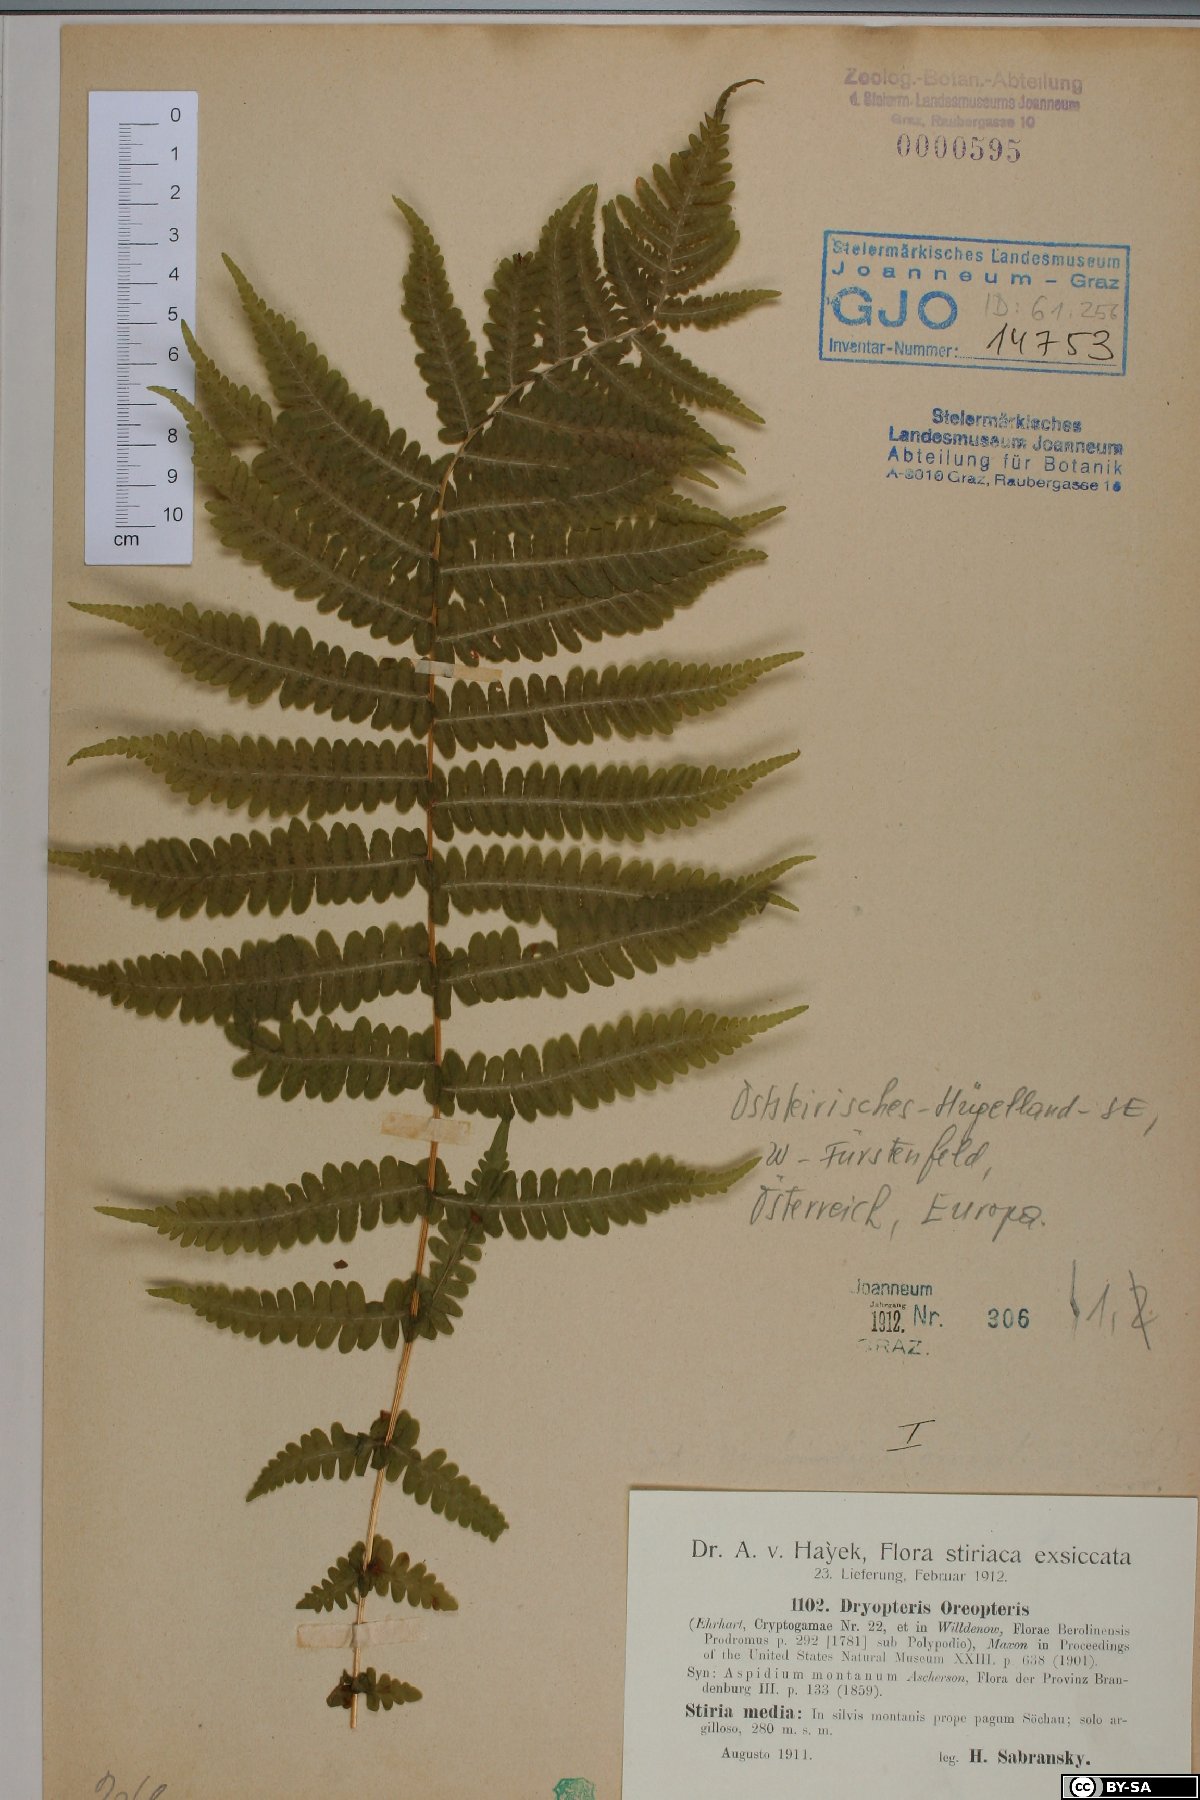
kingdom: Plantae
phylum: Tracheophyta
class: Polypodiopsida
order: Polypodiales
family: Thelypteridaceae
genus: Oreopteris
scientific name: Oreopteris limbosperma
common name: Lemon-scented fern
